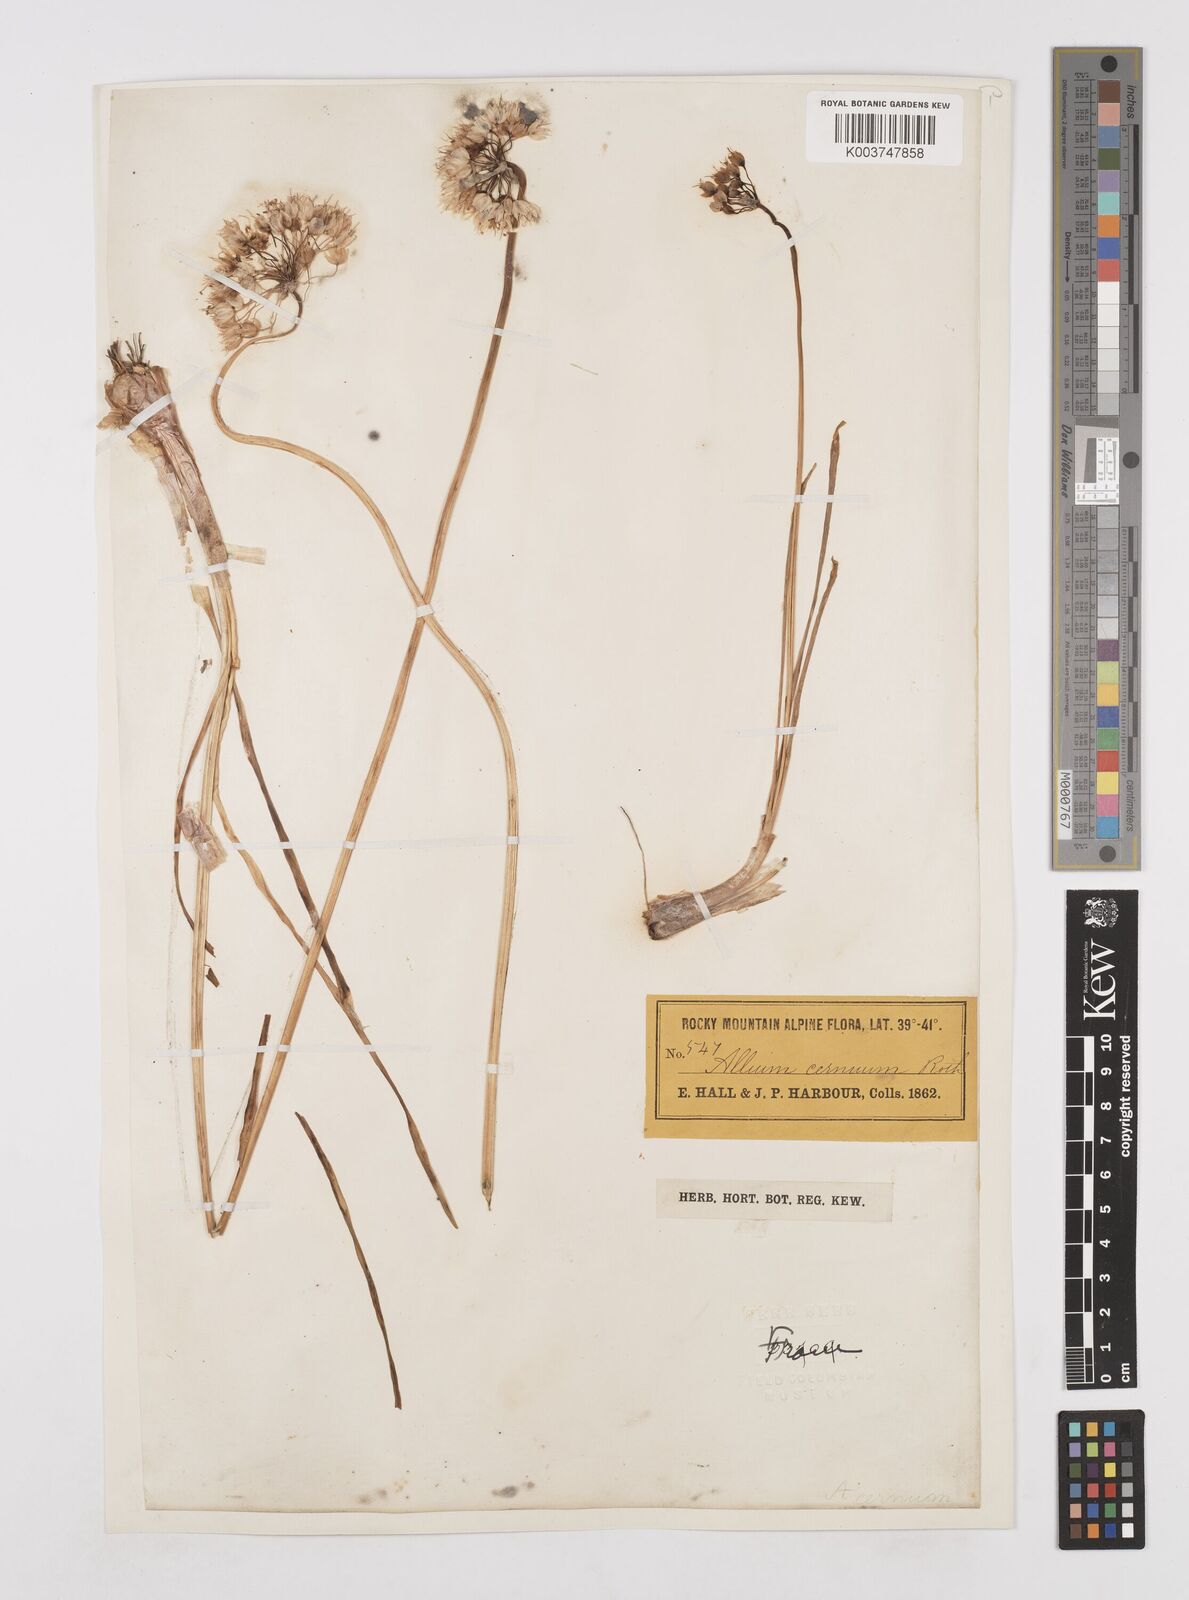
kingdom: Plantae
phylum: Tracheophyta
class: Liliopsida
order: Asparagales
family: Amaryllidaceae
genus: Allium
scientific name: Allium cernuum
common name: Nodding onion
